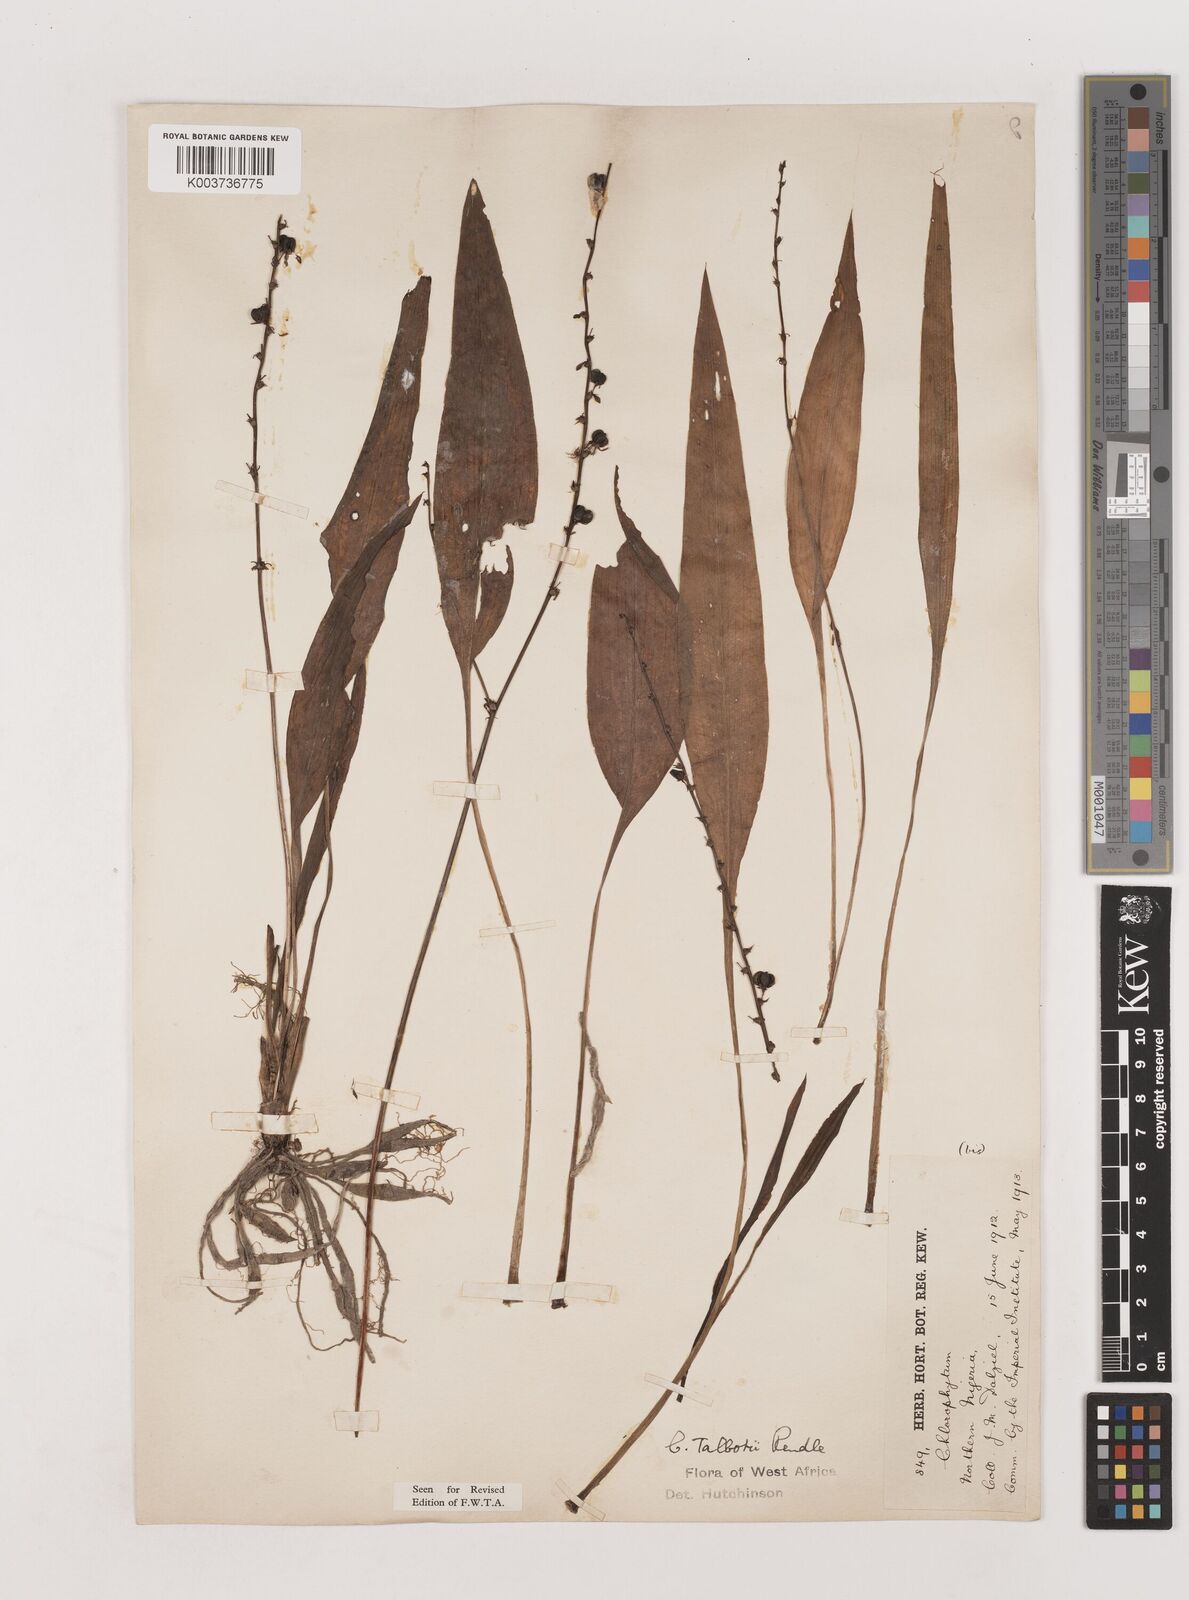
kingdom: Plantae
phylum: Tracheophyta
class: Liliopsida
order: Asparagales
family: Asparagaceae
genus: Chlorophytum
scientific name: Chlorophytum lancifolium
